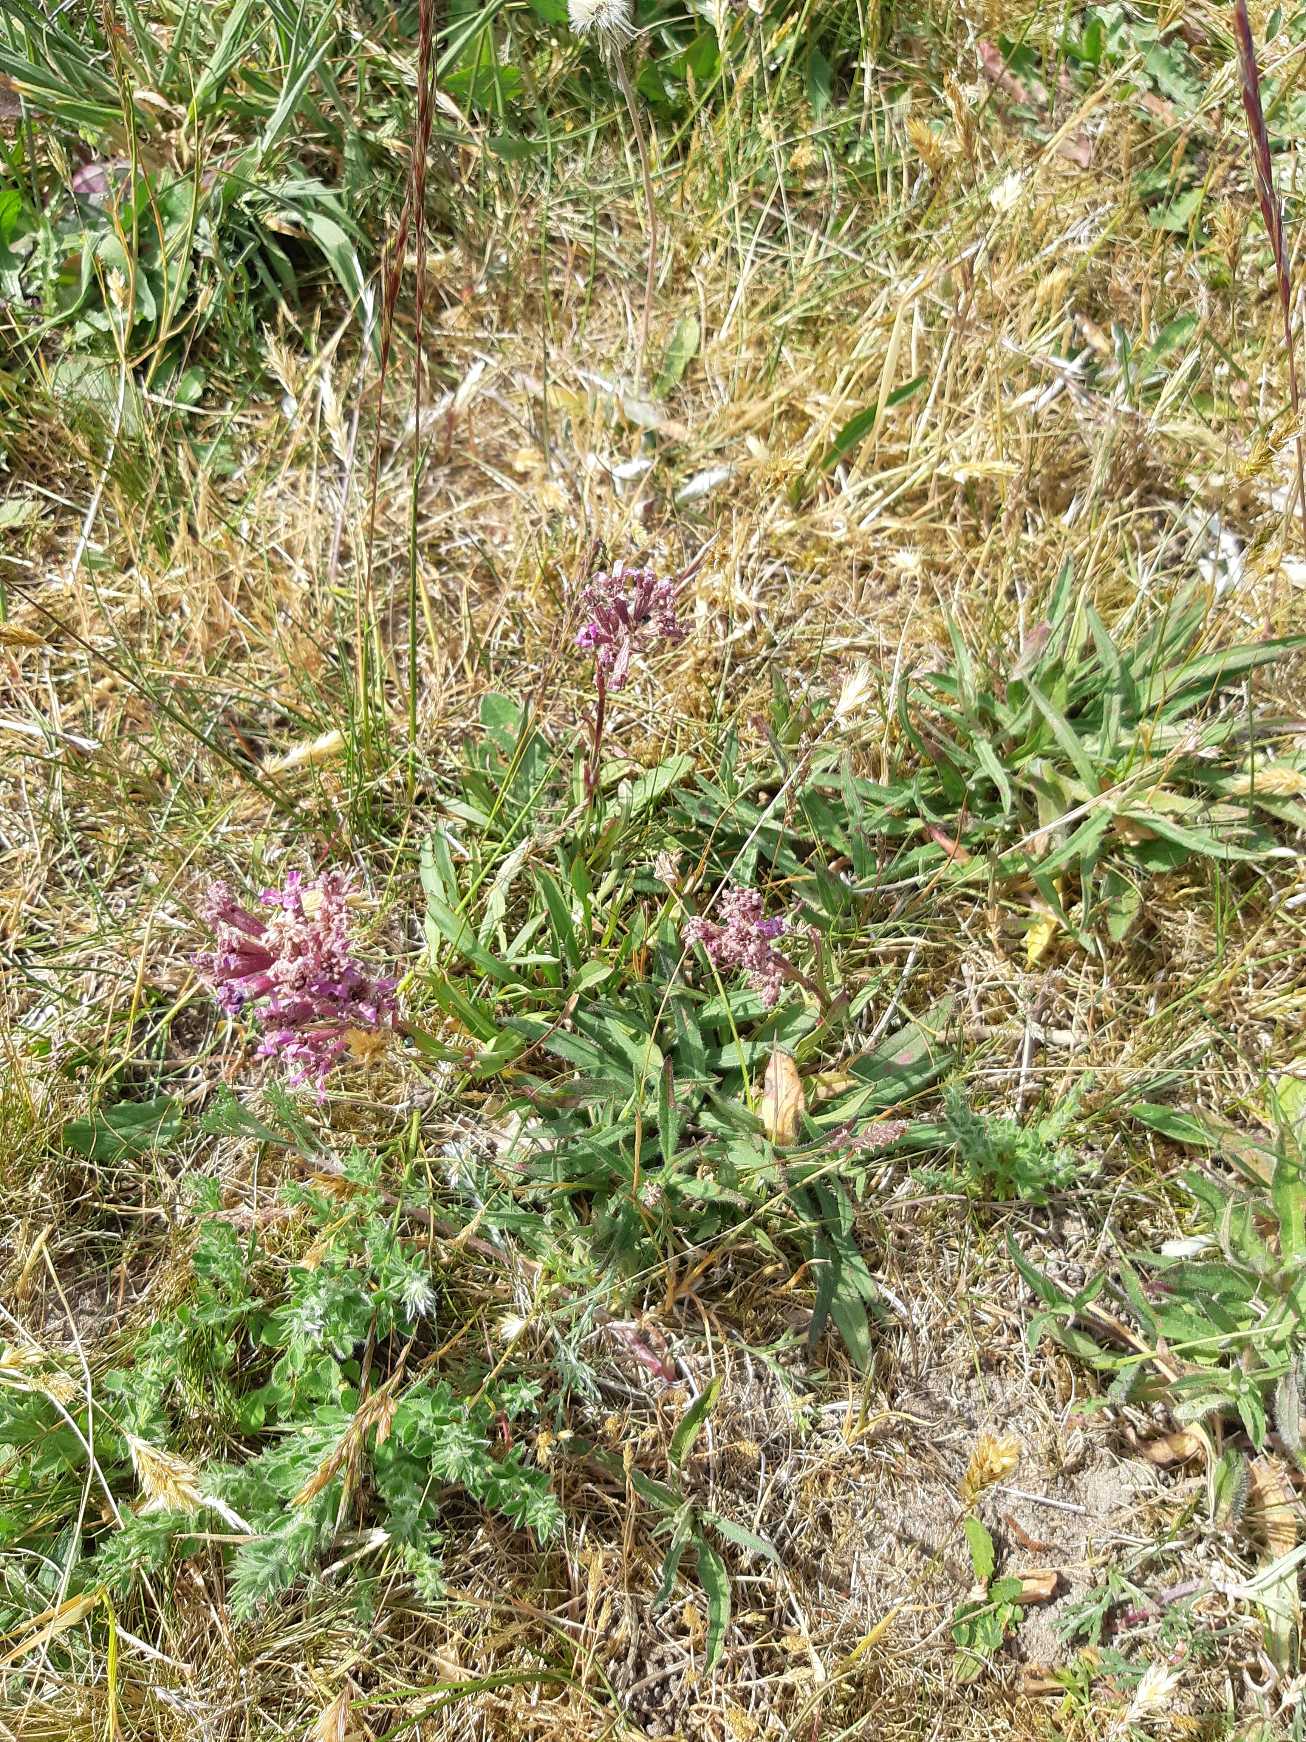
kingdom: Plantae
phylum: Tracheophyta
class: Magnoliopsida
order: Caryophyllales
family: Caryophyllaceae
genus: Viscaria
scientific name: Viscaria vulgaris
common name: Tjærenellike
